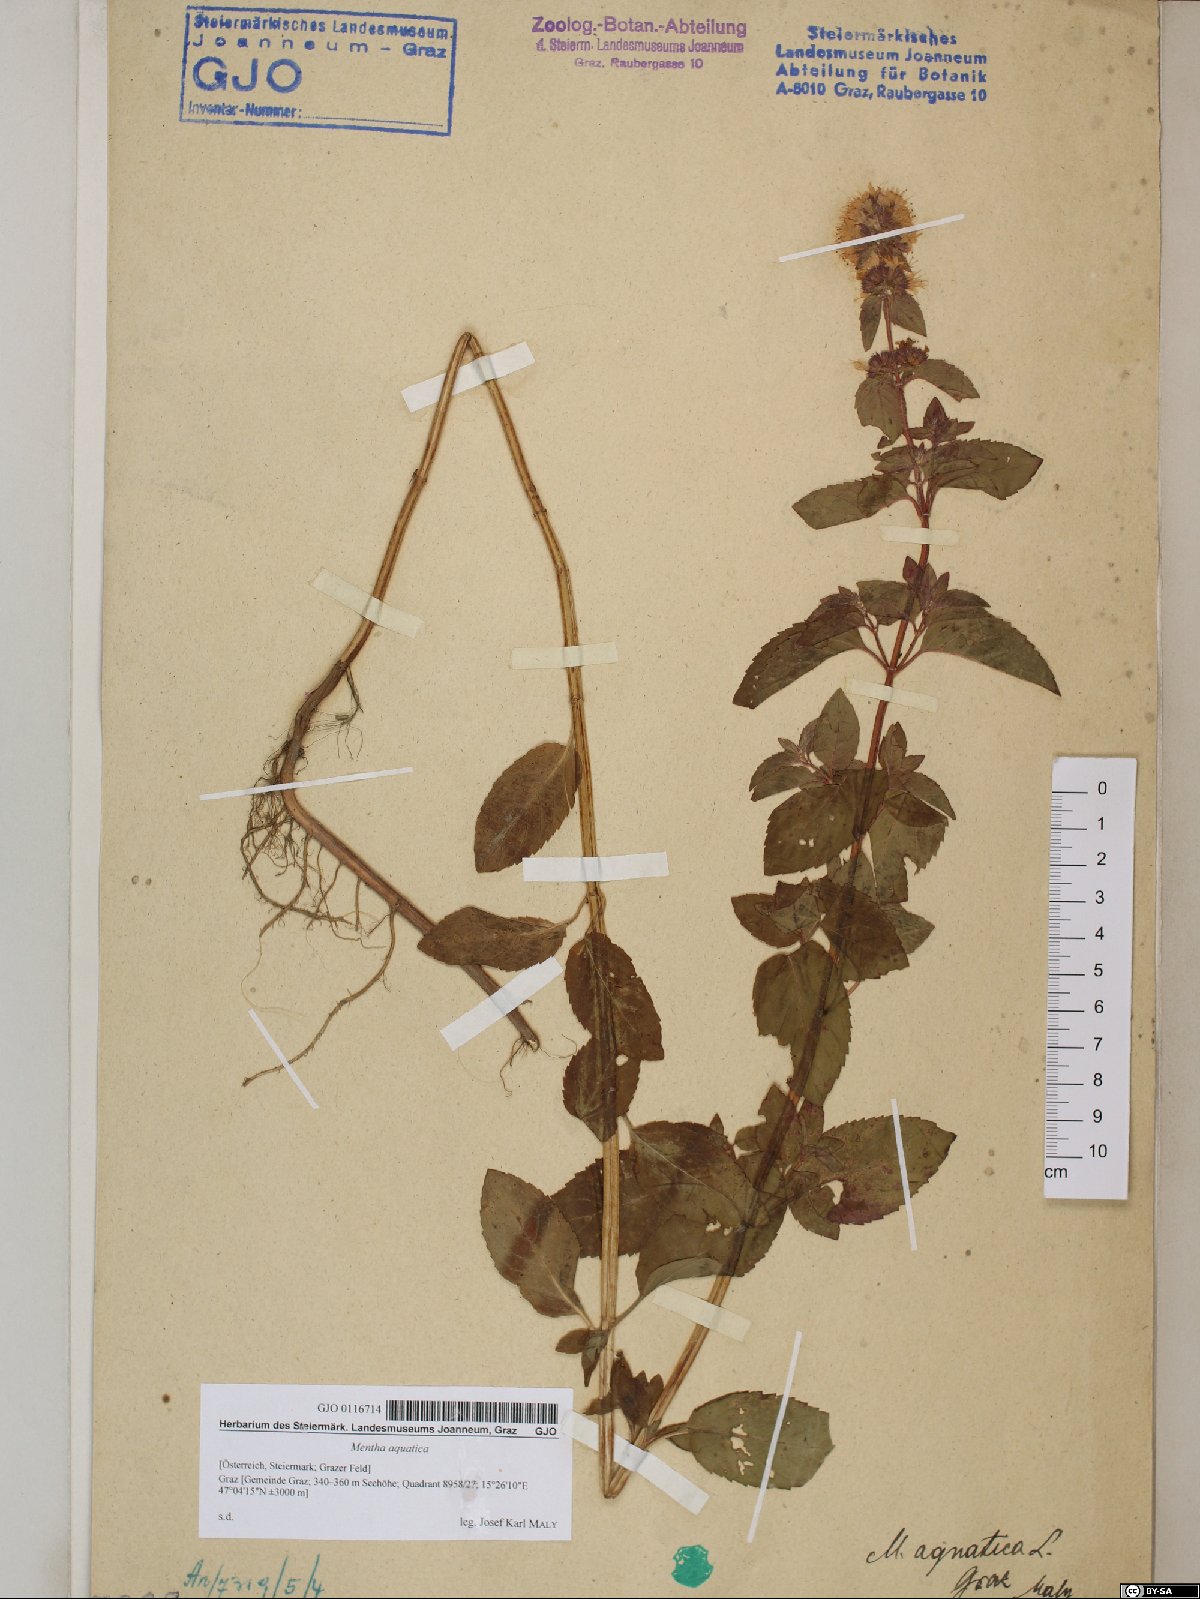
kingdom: Plantae
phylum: Tracheophyta
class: Magnoliopsida
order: Lamiales
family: Lamiaceae
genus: Mentha
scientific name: Mentha aquatica
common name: Water mint
